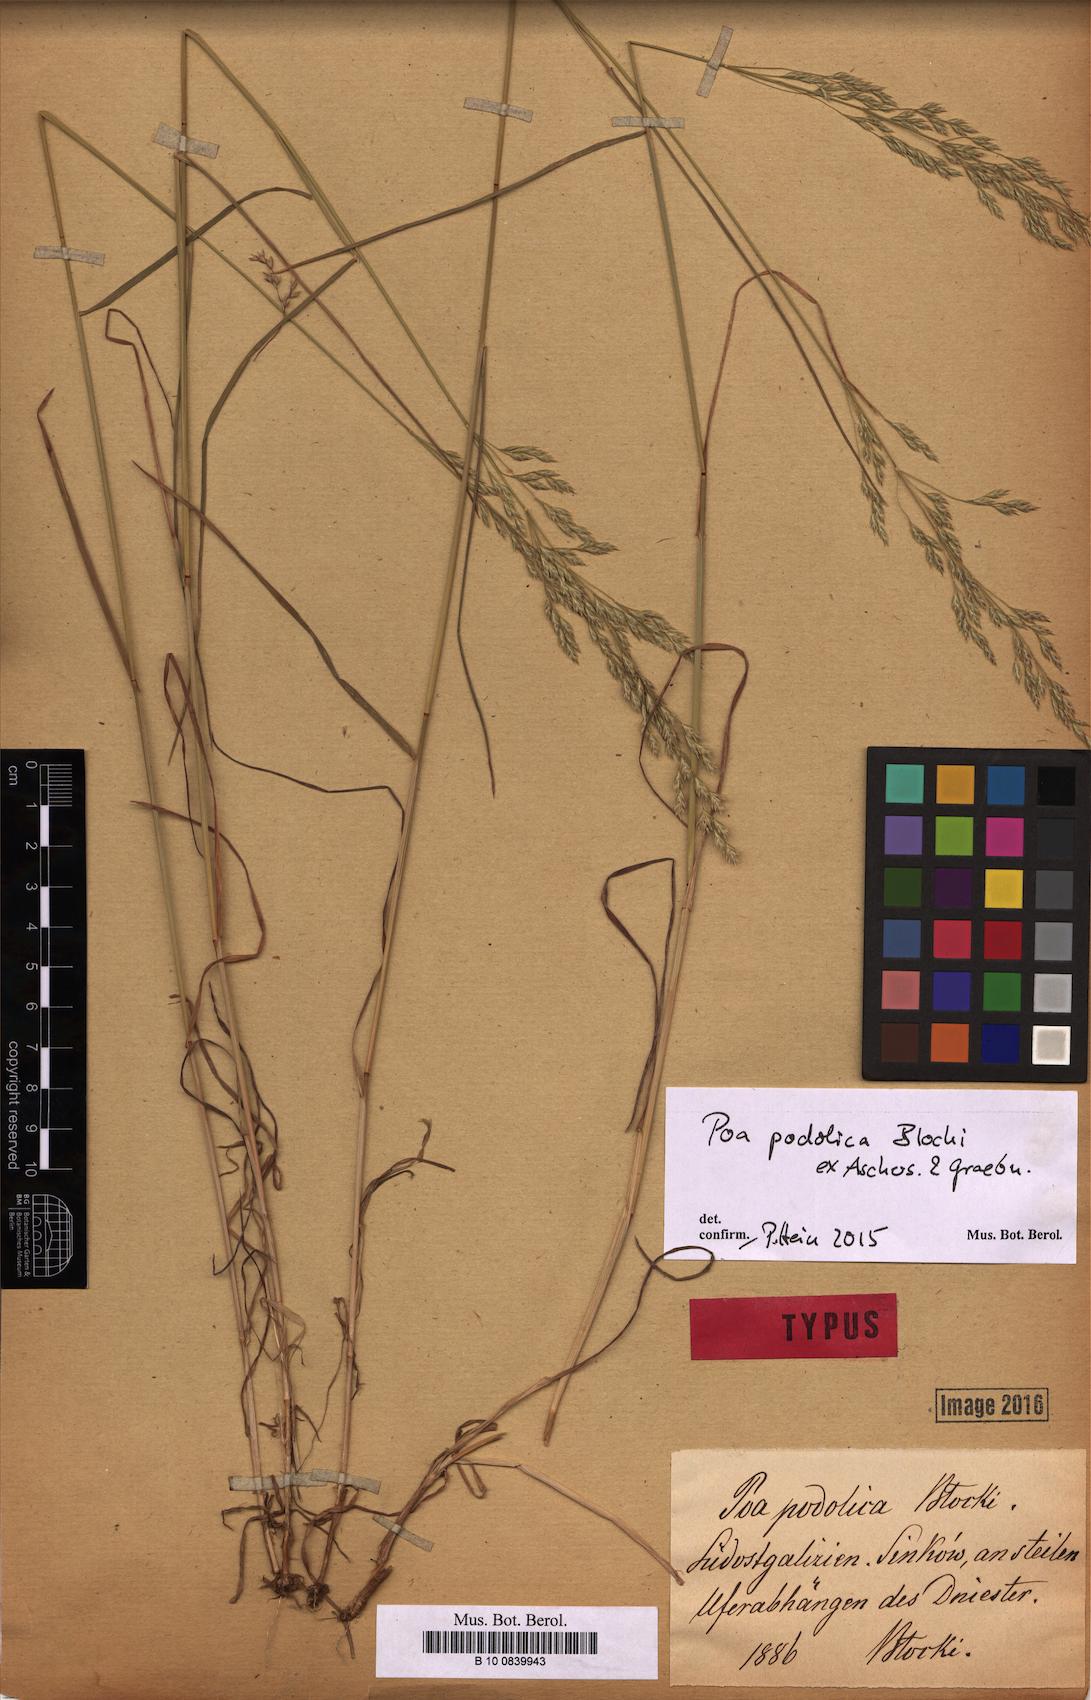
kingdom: Plantae
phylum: Tracheophyta
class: Liliopsida
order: Poales
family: Poaceae
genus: Poa
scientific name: Poa versicolor
